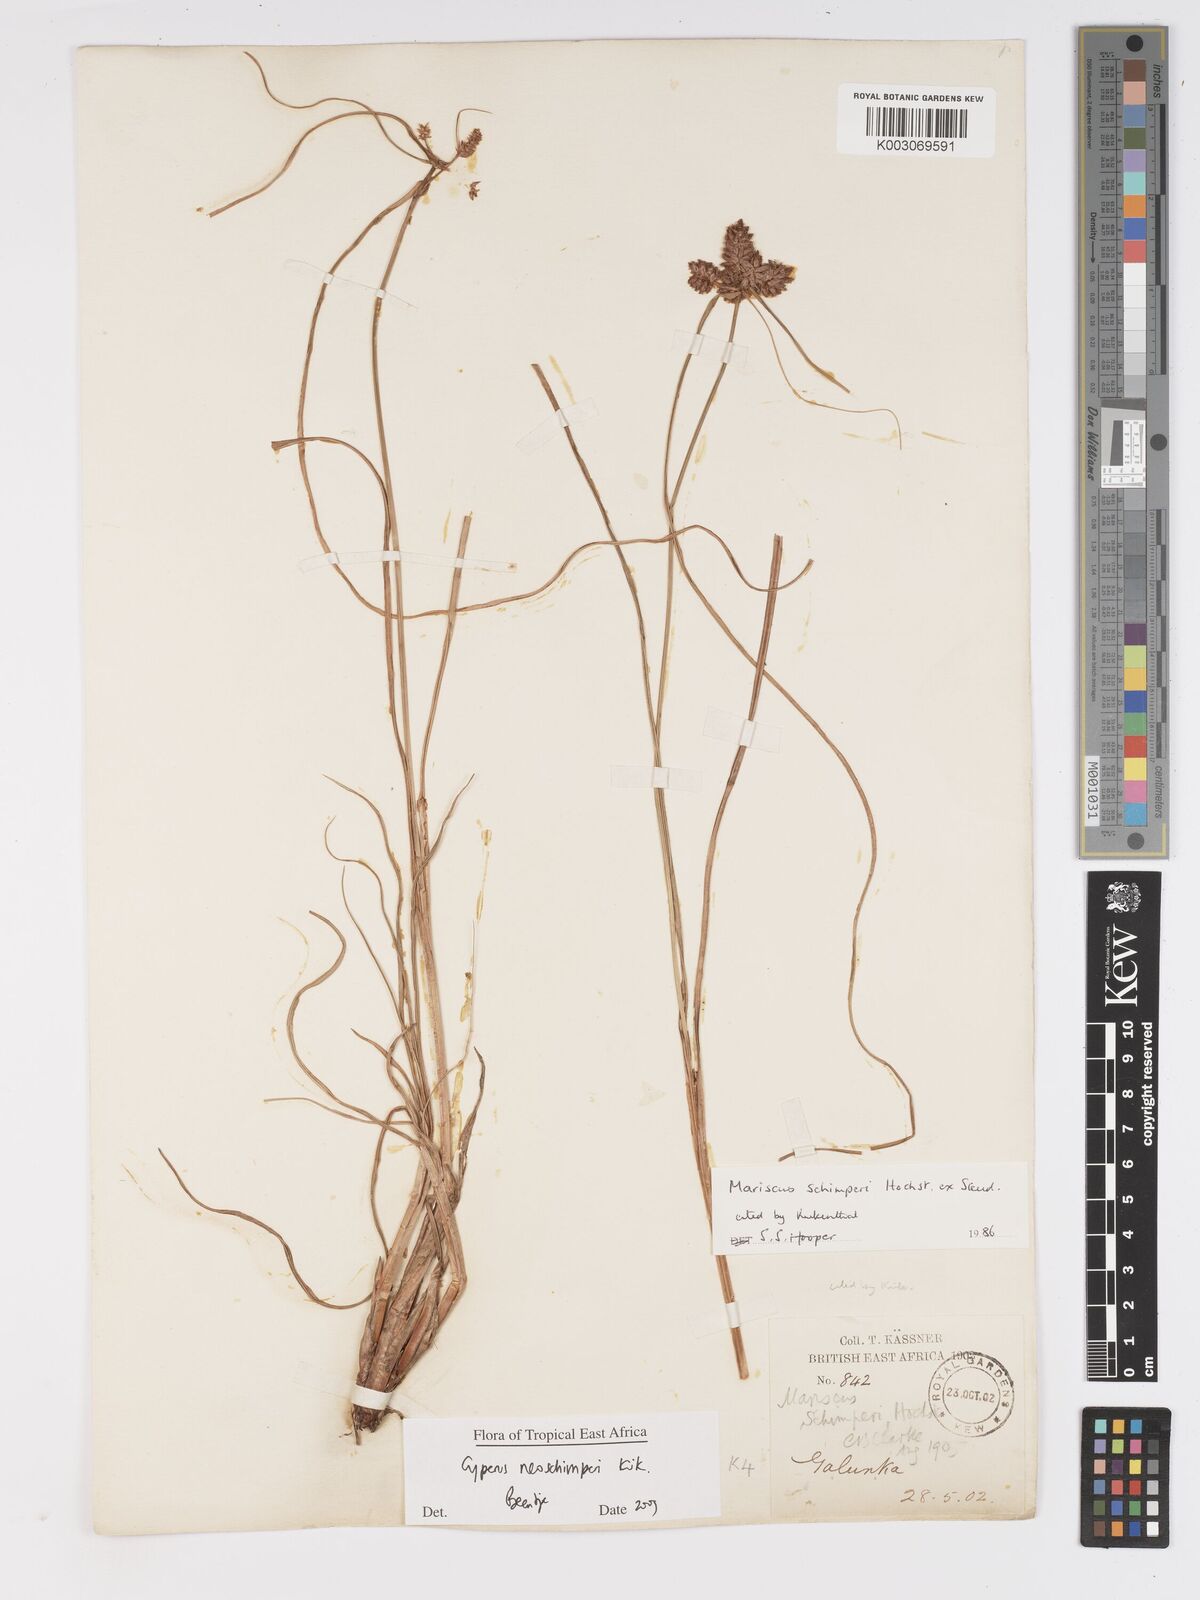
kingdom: Plantae
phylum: Tracheophyta
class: Liliopsida
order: Poales
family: Cyperaceae
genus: Cyperus
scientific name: Cyperus cruentus
